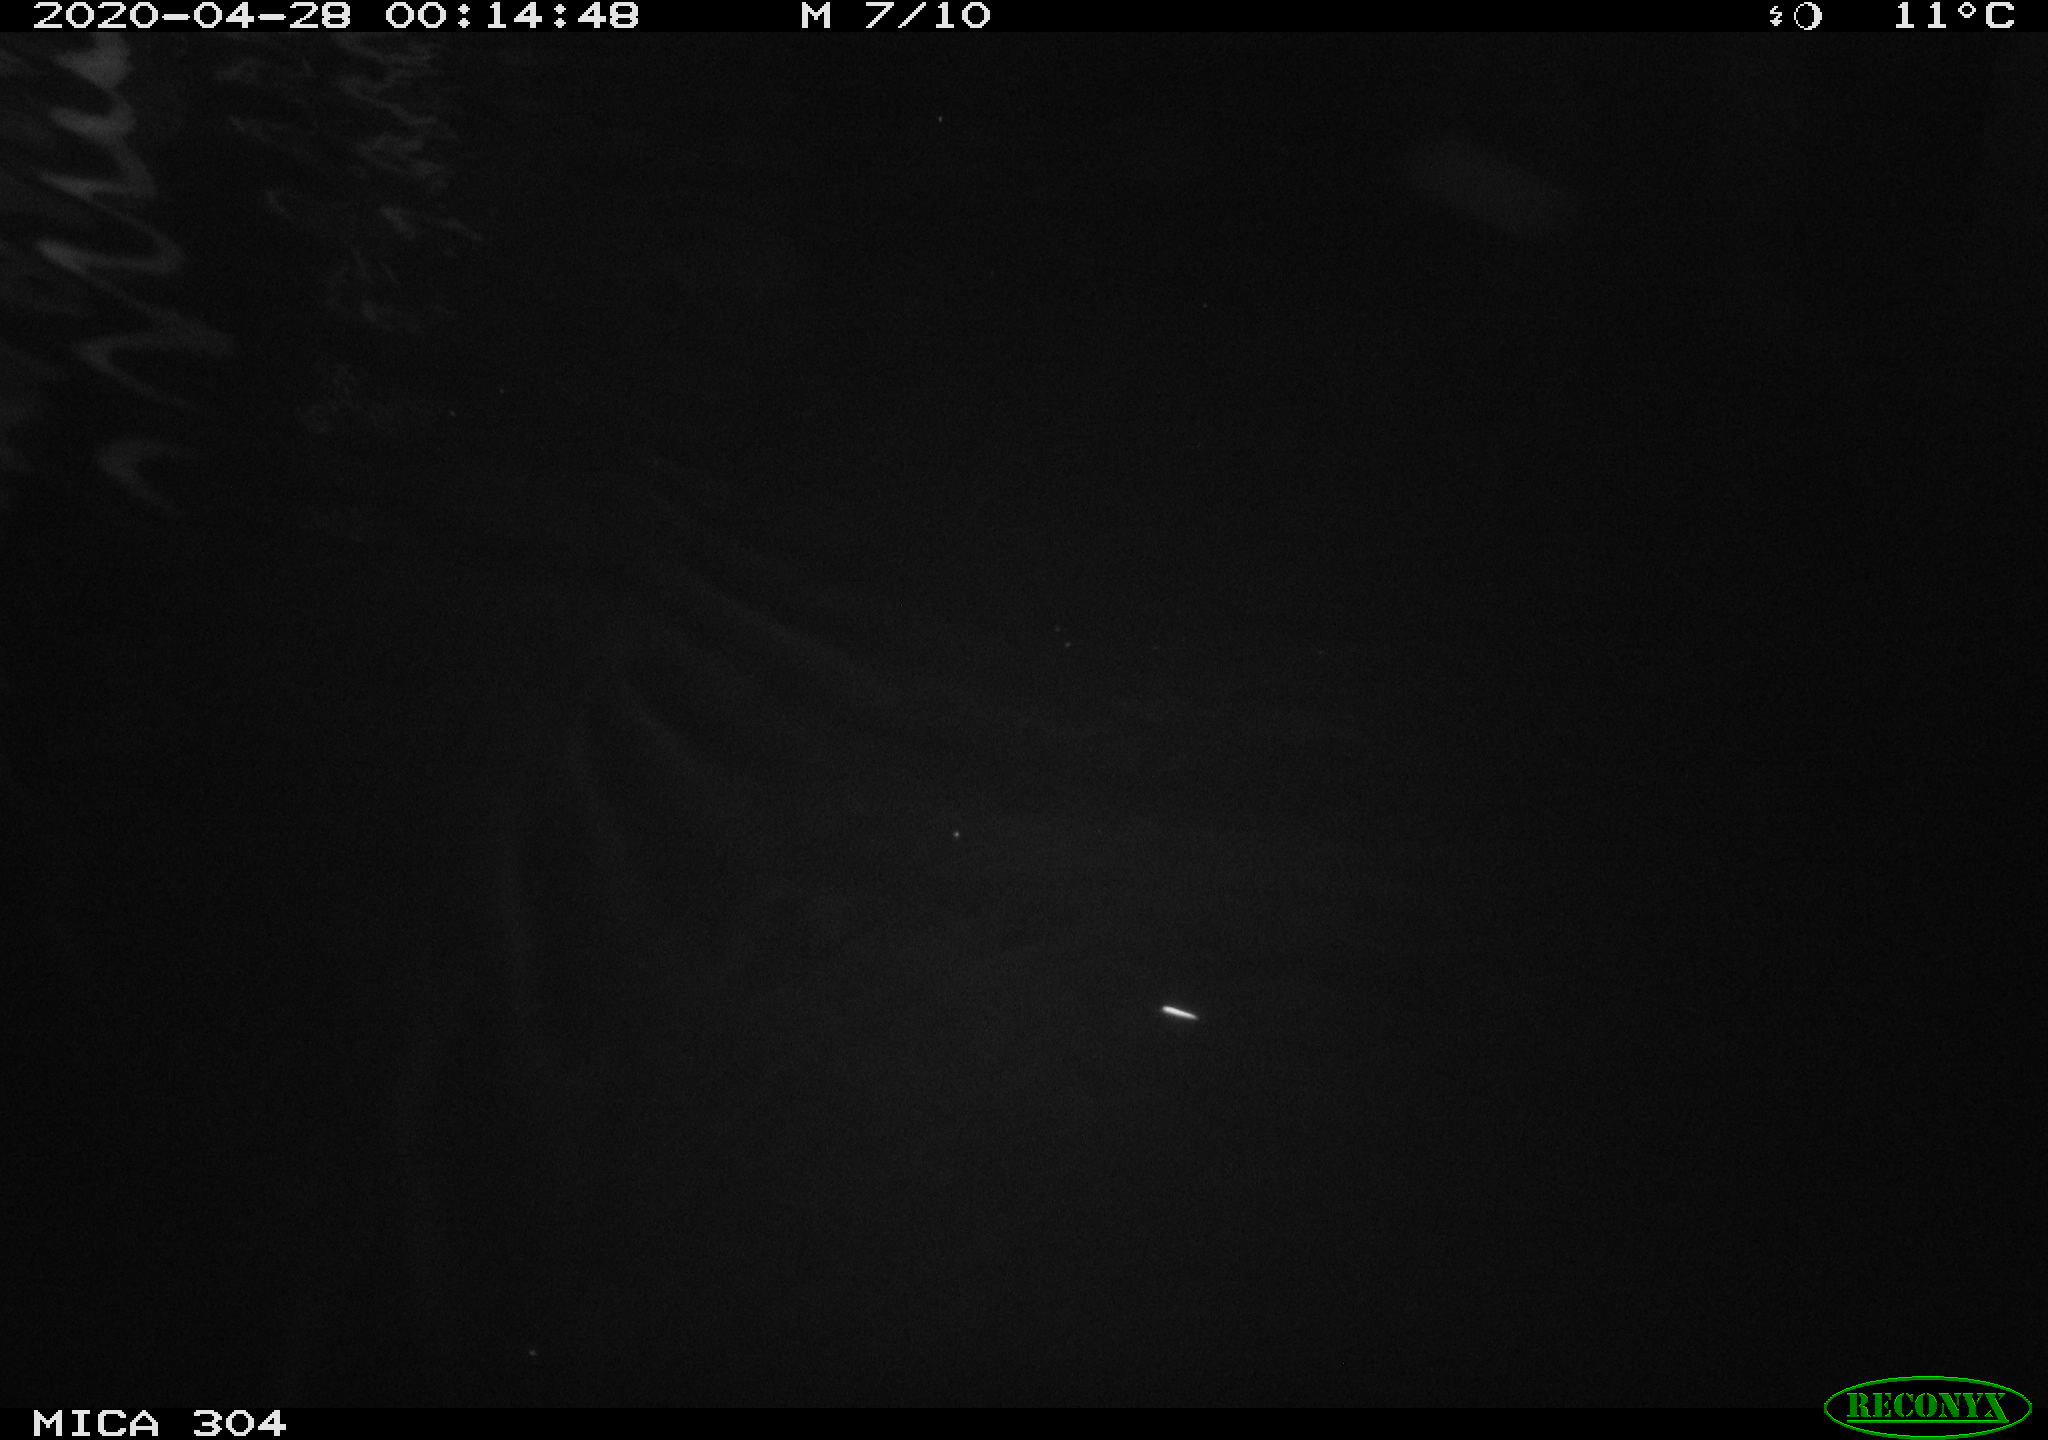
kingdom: Animalia
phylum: Chordata
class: Aves
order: Anseriformes
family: Anatidae
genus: Anas
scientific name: Anas platyrhynchos
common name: Mallard
